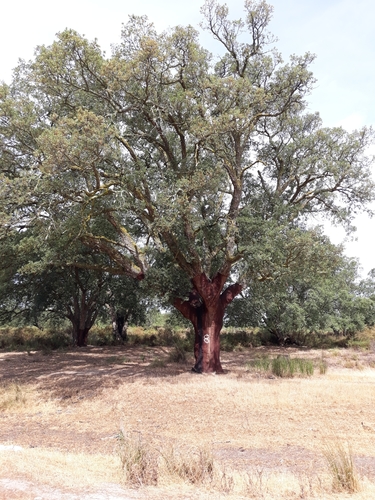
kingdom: Plantae
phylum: Tracheophyta
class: Magnoliopsida
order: Fagales
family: Fagaceae
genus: Quercus
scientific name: Quercus suber
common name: Cork oak
